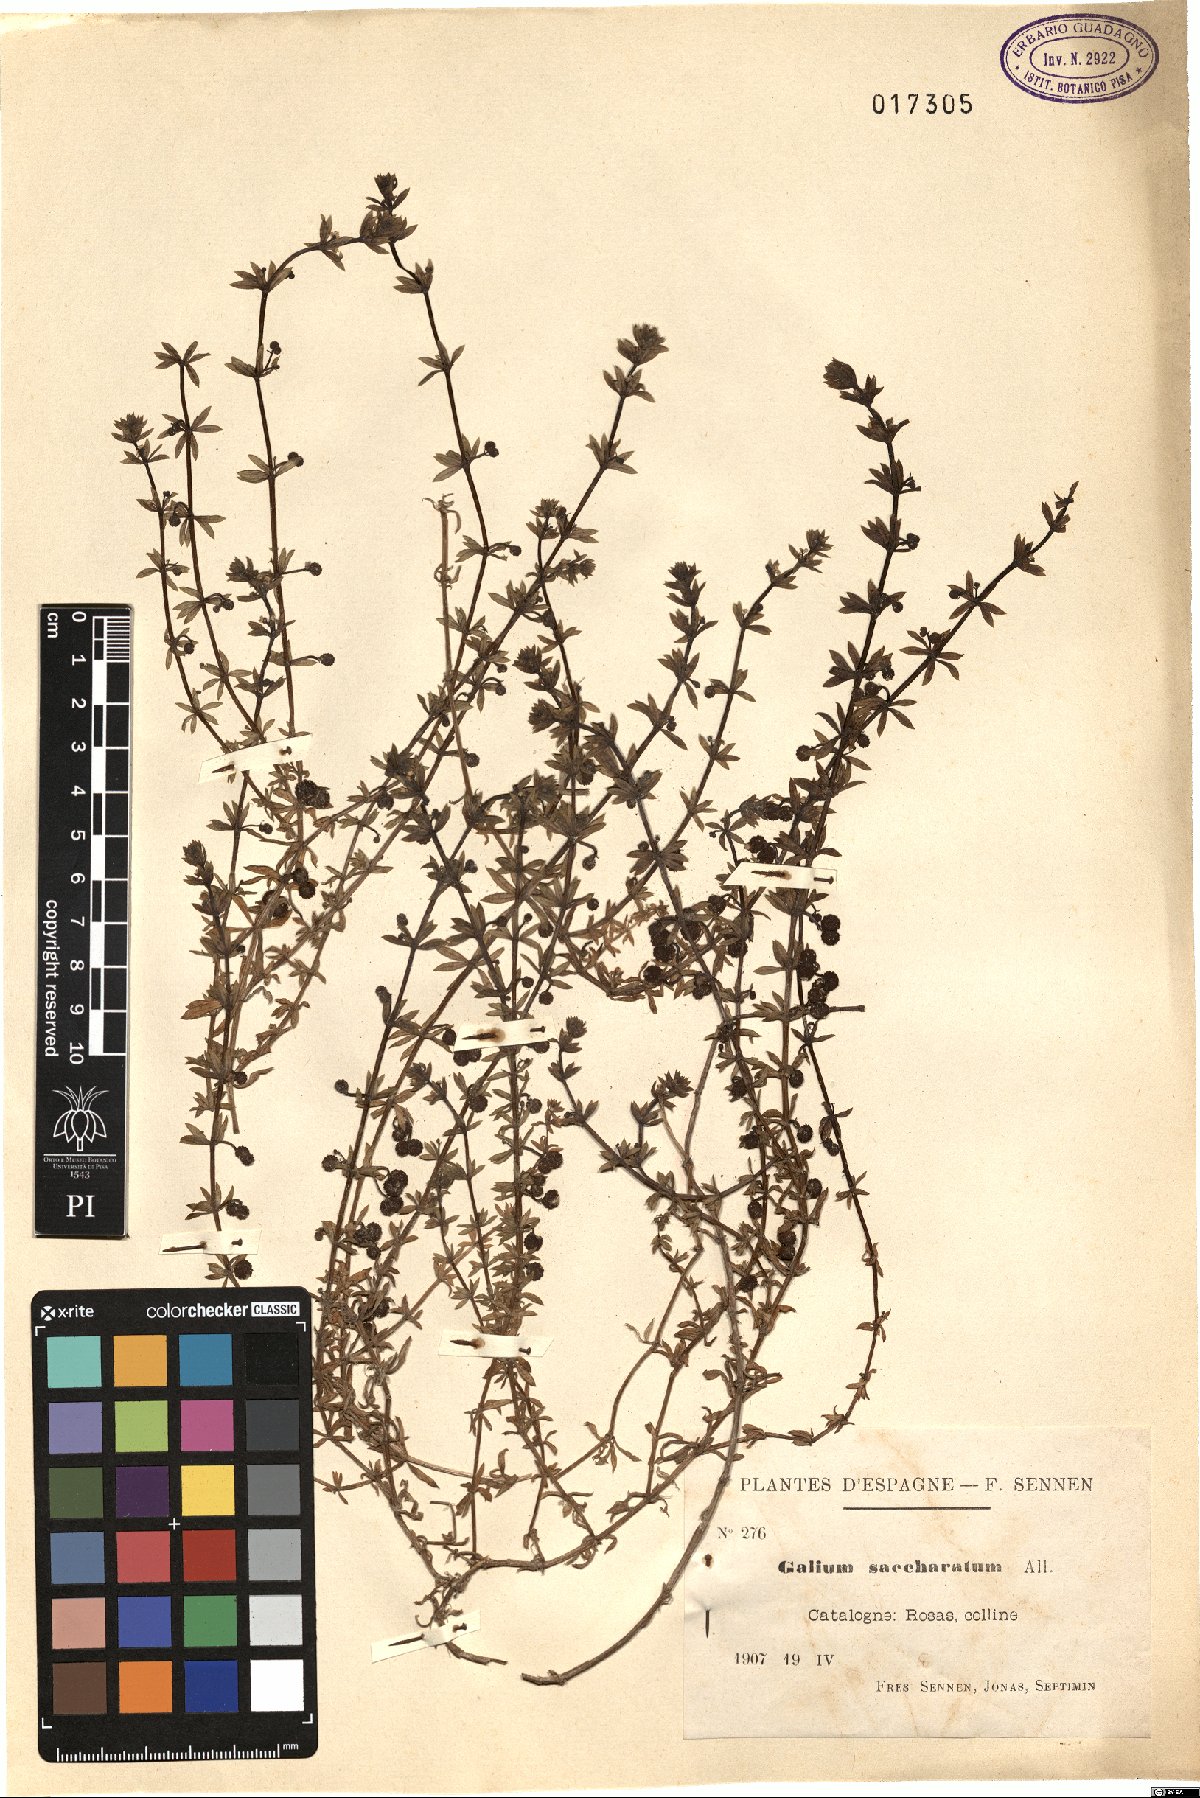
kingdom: Plantae
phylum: Tracheophyta
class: Magnoliopsida
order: Gentianales
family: Rubiaceae
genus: Galium
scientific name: Galium verrucosum
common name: Warty bedstraw
